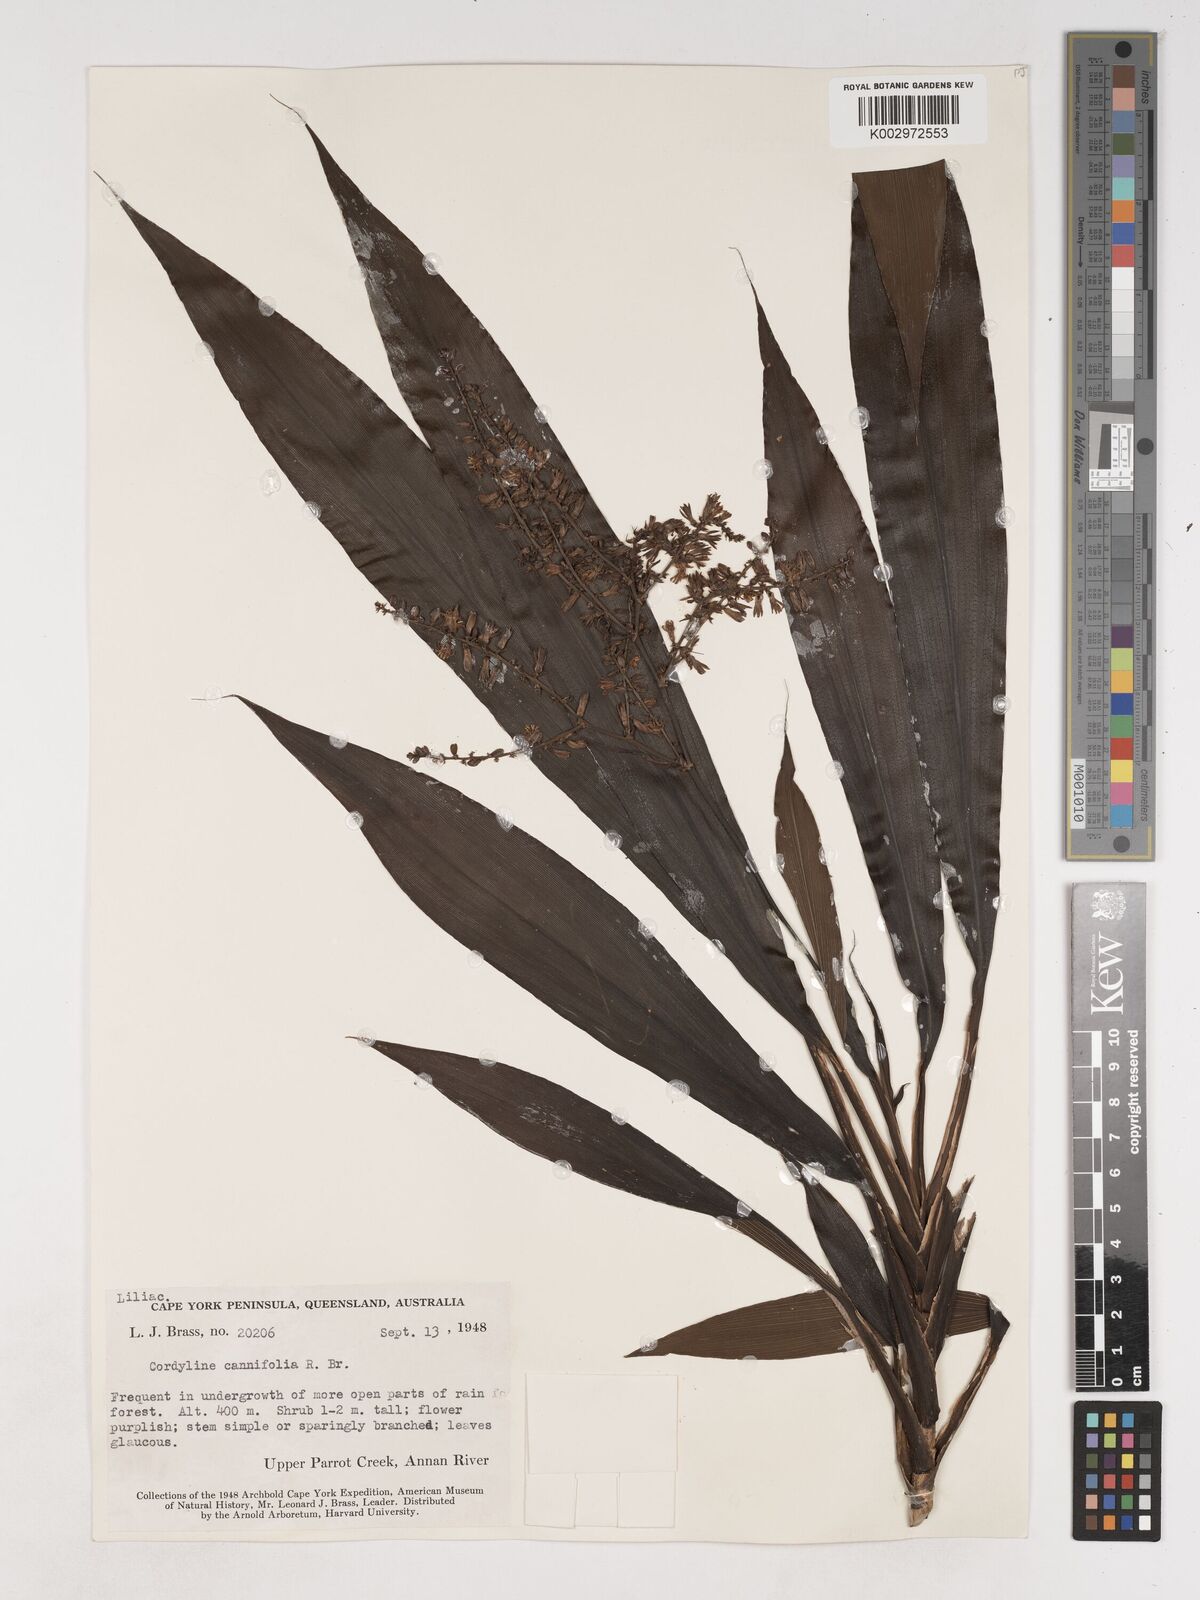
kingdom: Plantae
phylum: Tracheophyta
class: Liliopsida
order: Asparagales
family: Asparagaceae
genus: Cordyline
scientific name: Cordyline fruticosa
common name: Good-luck-plant
